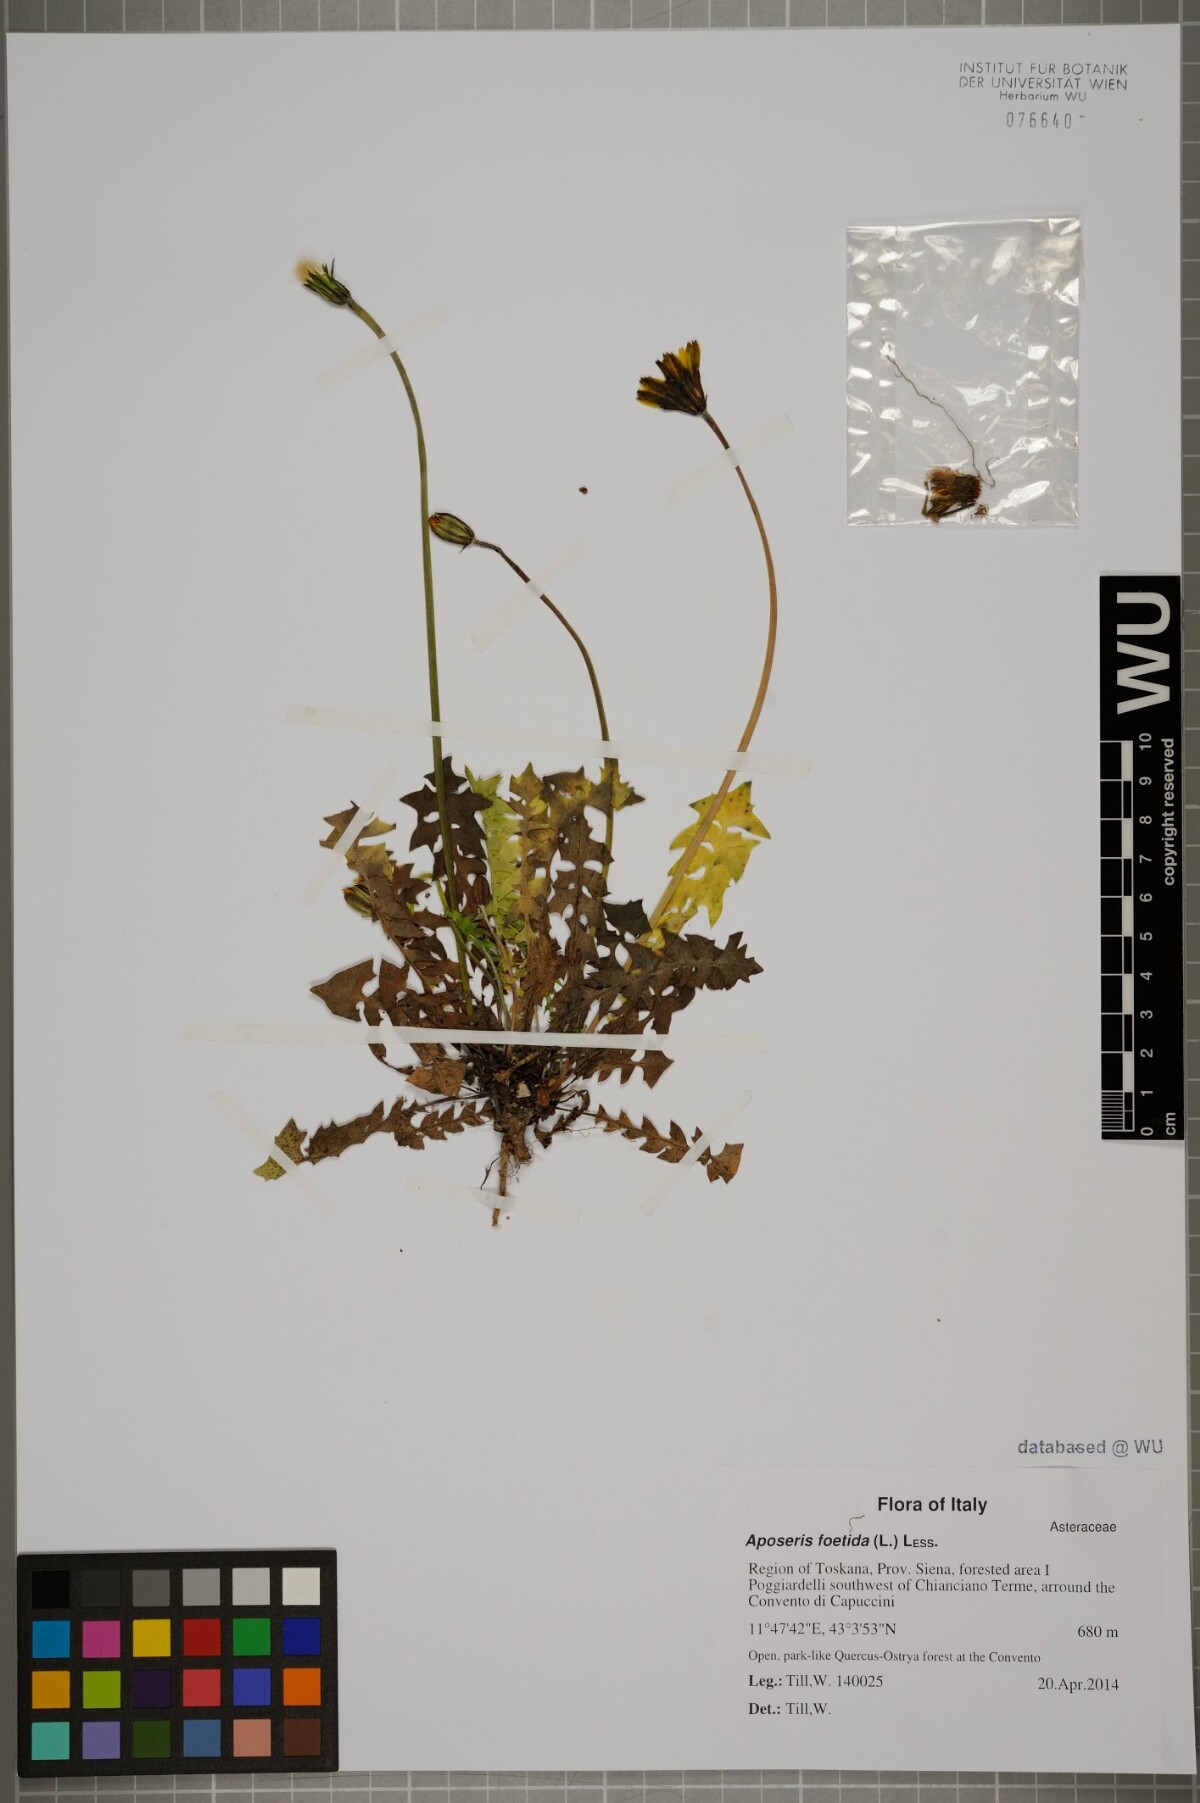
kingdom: Plantae
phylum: Tracheophyta
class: Magnoliopsida
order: Asterales
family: Asteraceae
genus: Aposeris
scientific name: Aposeris foetida
